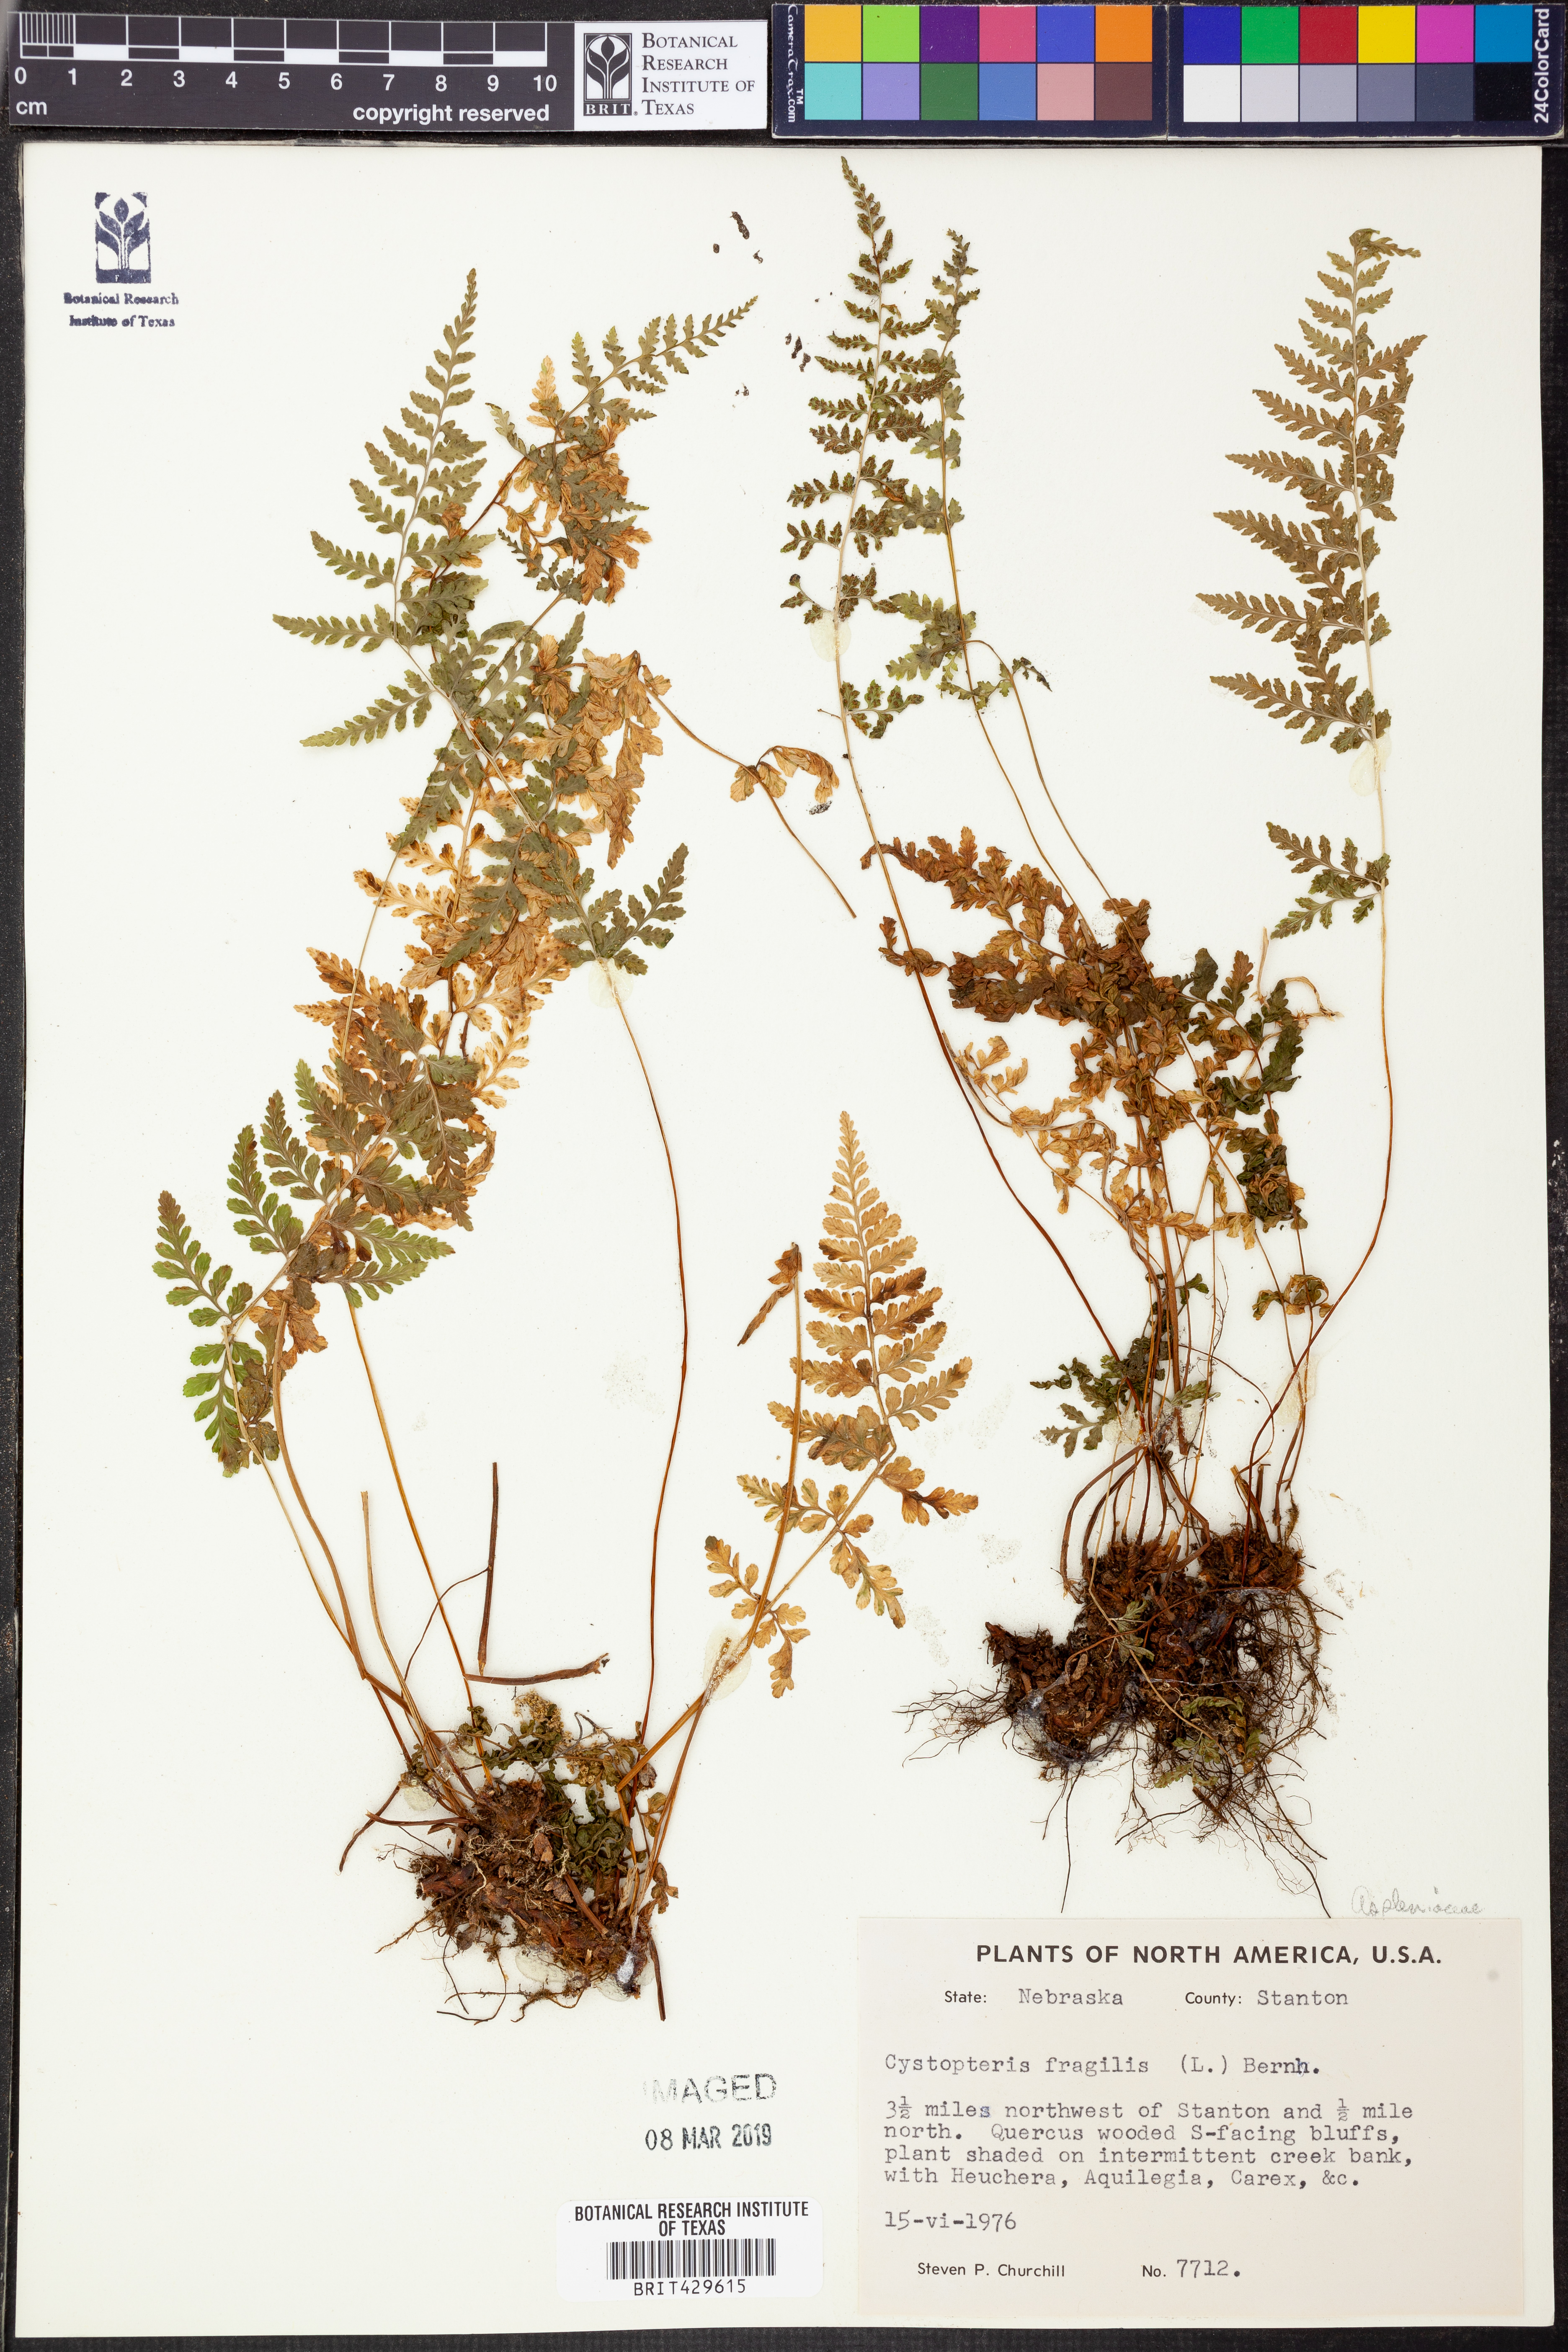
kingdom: Plantae
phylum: Tracheophyta
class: Polypodiopsida
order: Polypodiales
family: Cystopteridaceae
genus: Cystopteris
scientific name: Cystopteris fragilis
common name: Brittle bladder fern
